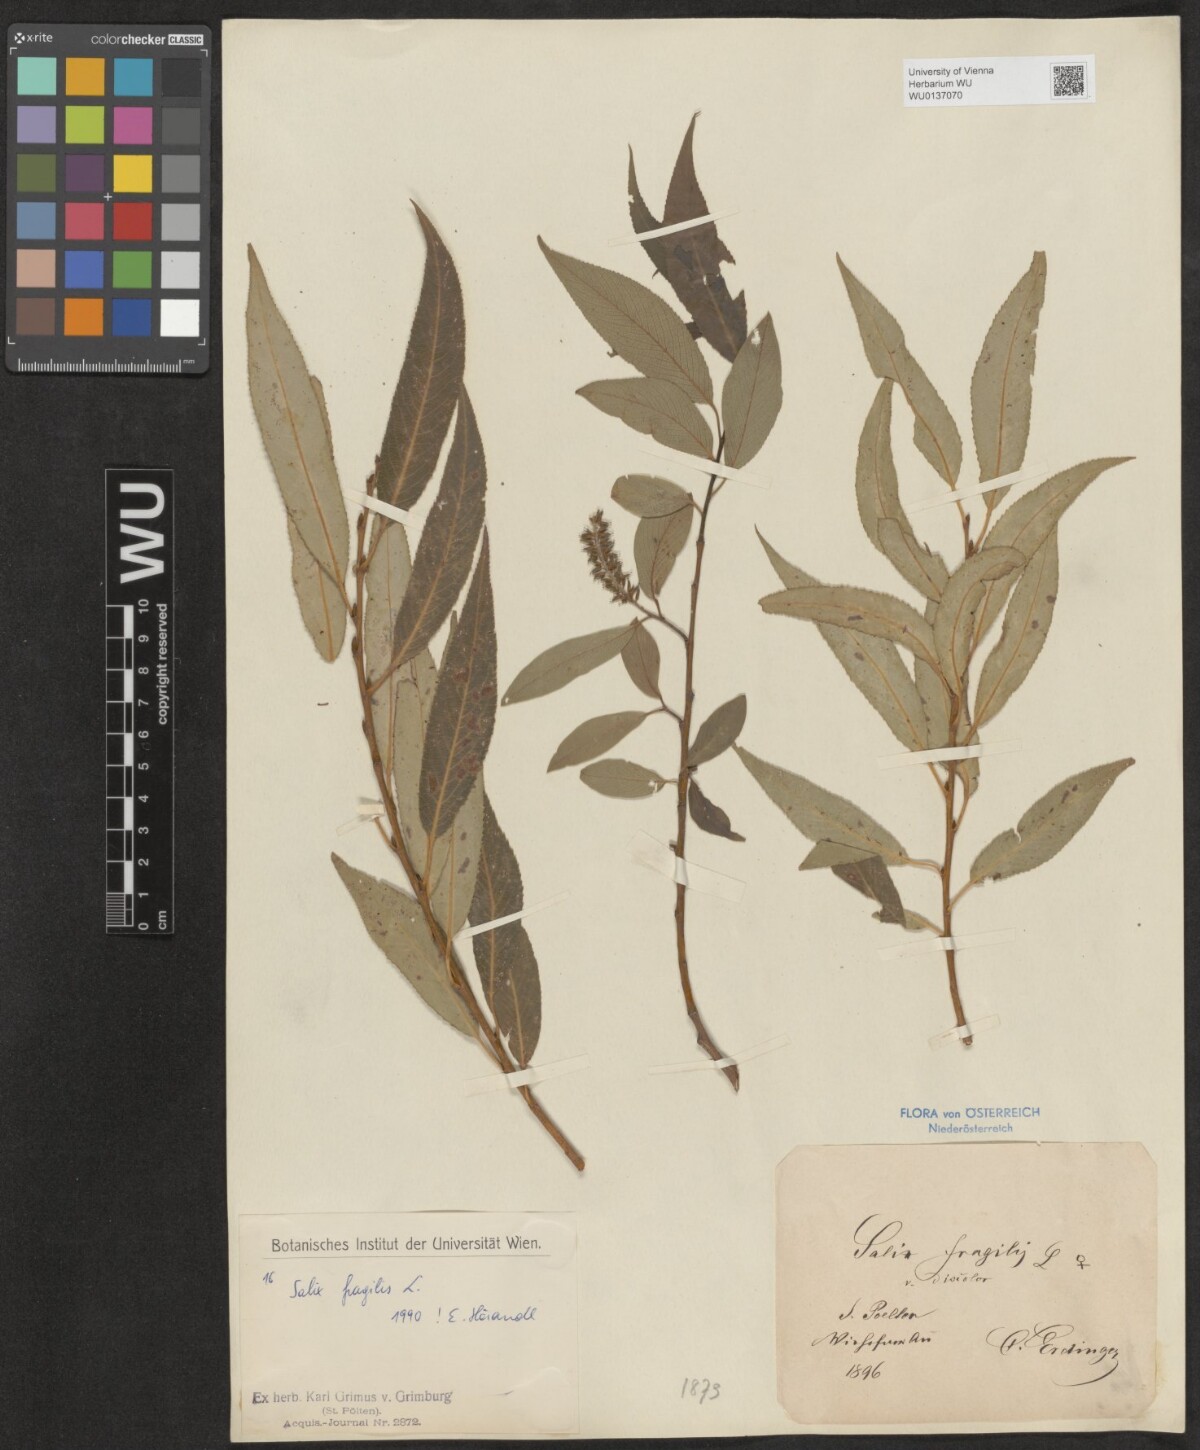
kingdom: Plantae
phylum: Tracheophyta
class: Magnoliopsida
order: Malpighiales
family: Salicaceae
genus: Salix
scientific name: Salix fragilis
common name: Crack willow
